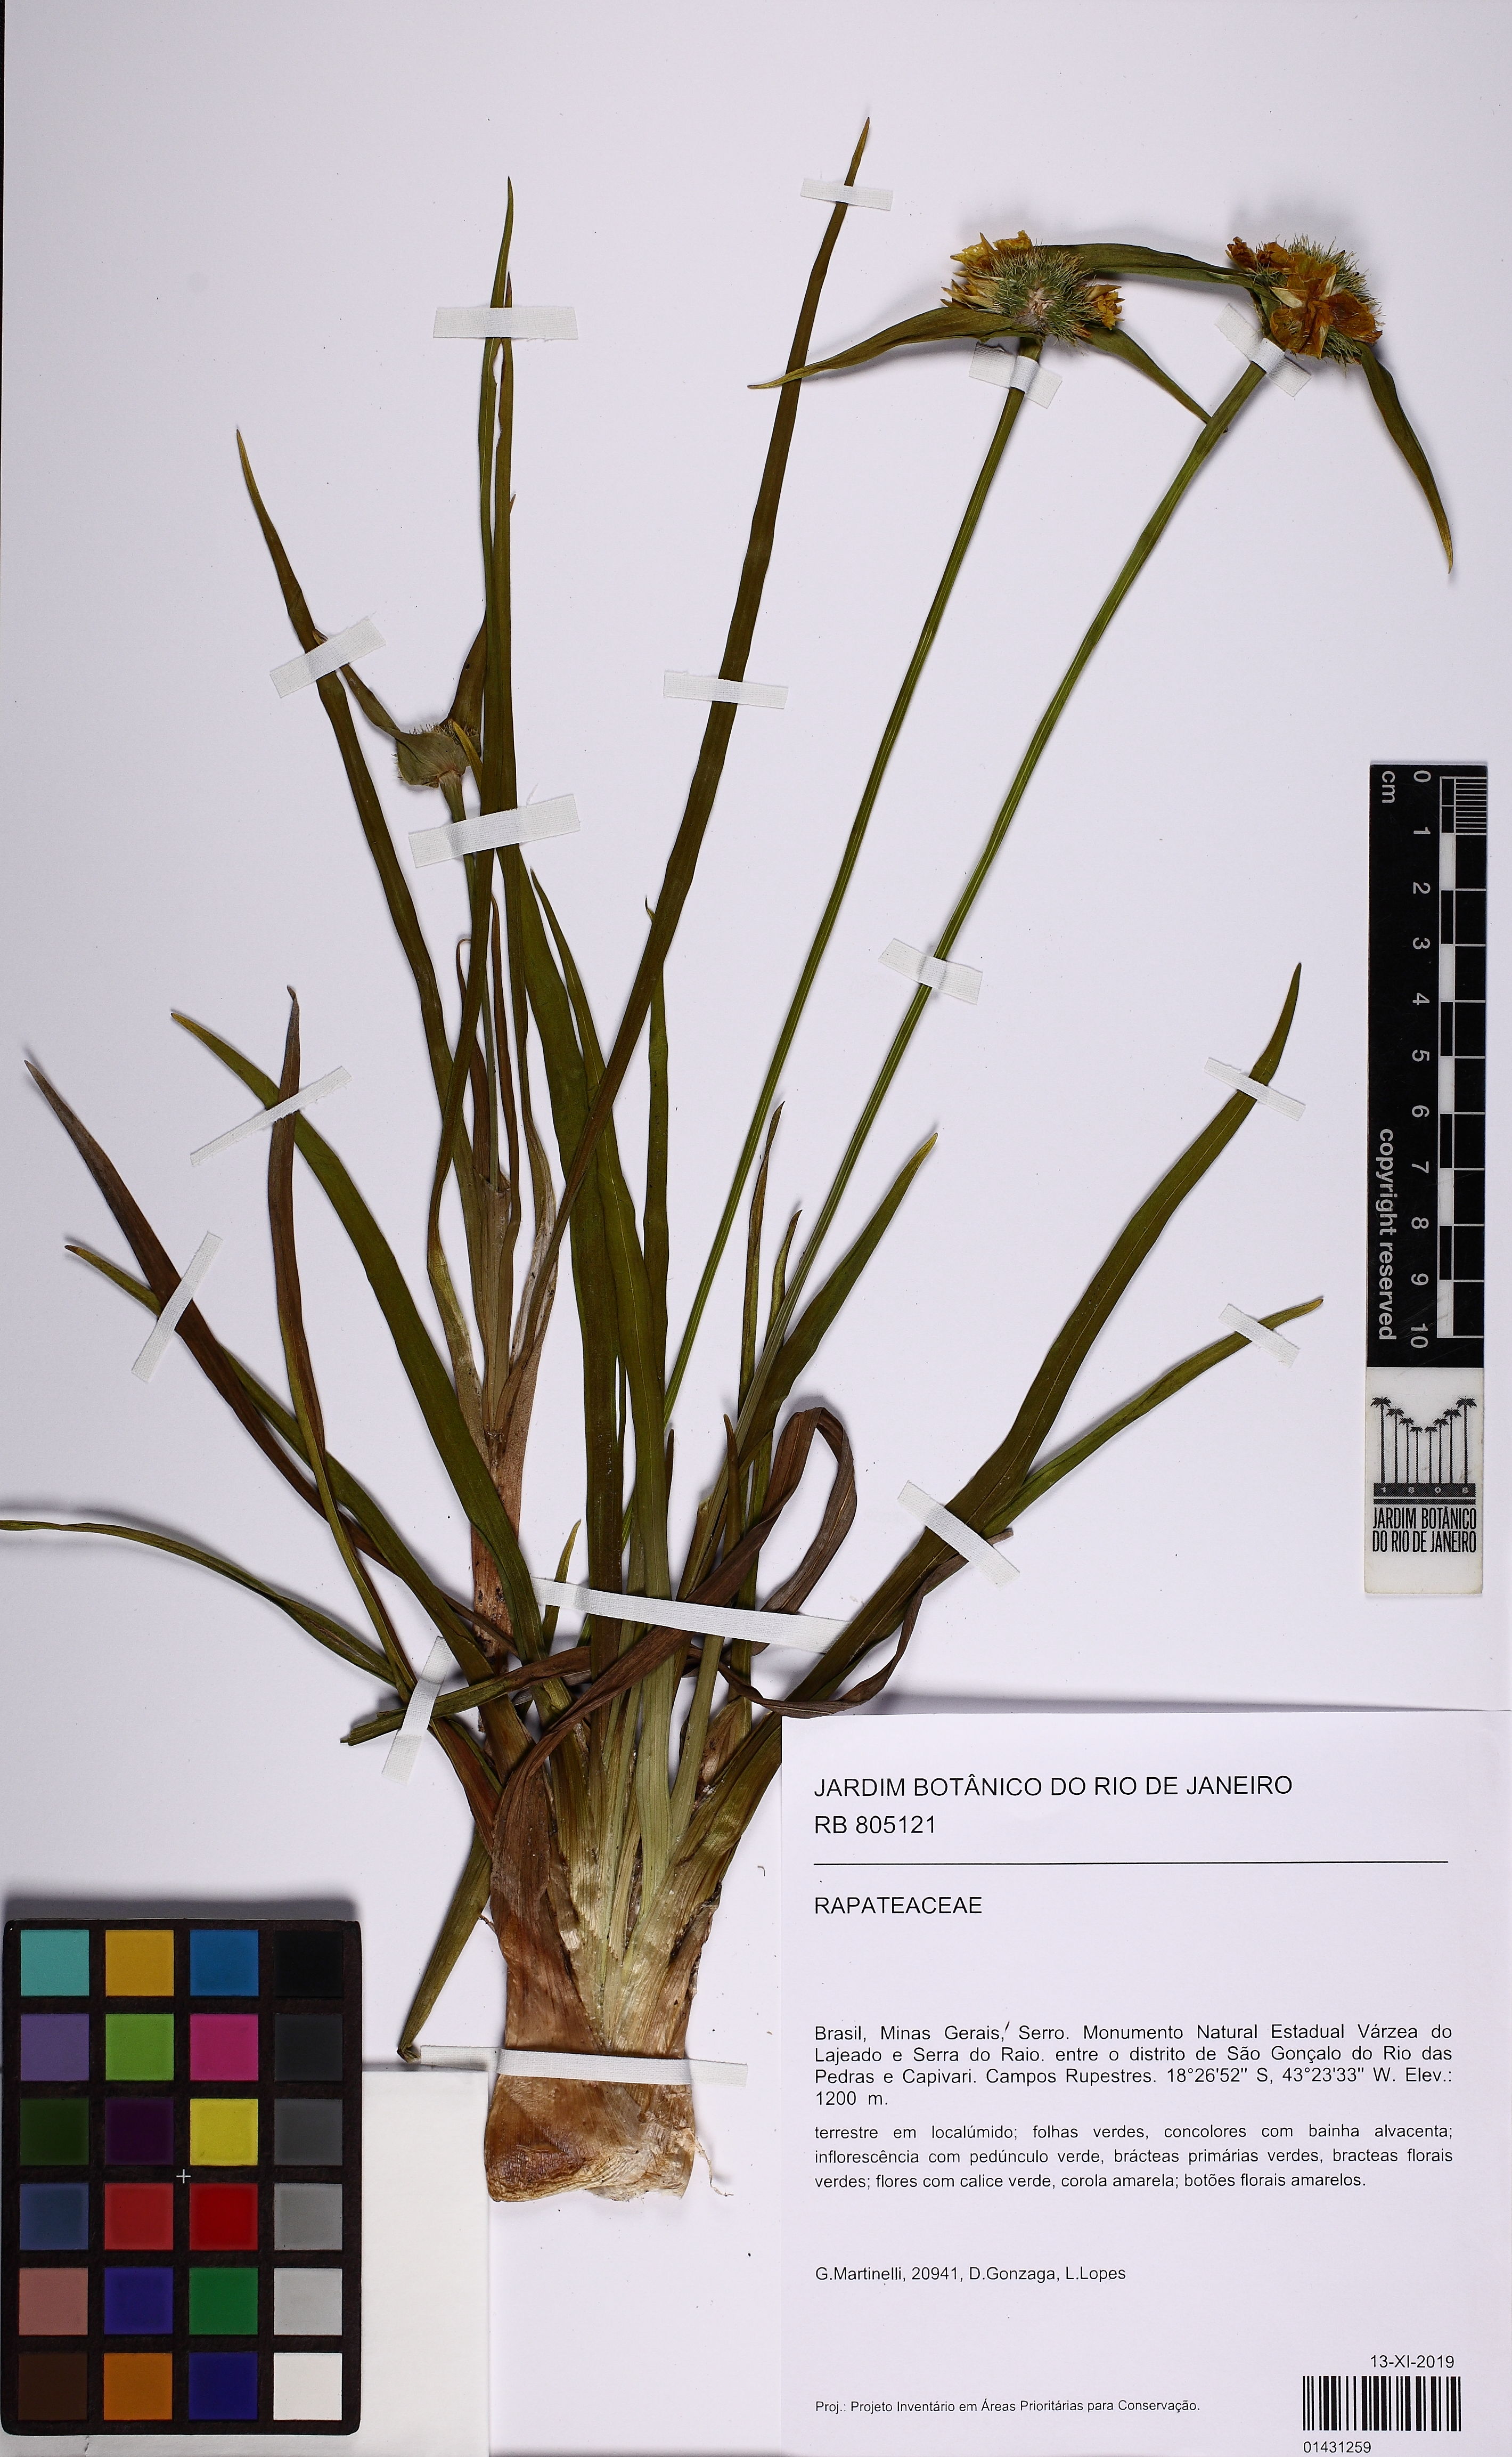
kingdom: Plantae
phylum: Tracheophyta
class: Liliopsida
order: Poales
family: Rapateaceae
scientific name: Rapateaceae
